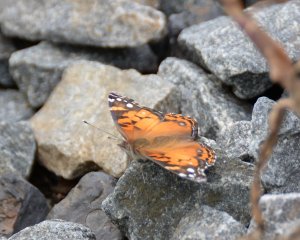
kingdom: Animalia
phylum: Arthropoda
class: Insecta
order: Lepidoptera
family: Nymphalidae
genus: Vanessa
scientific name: Vanessa virginiensis
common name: American Lady
